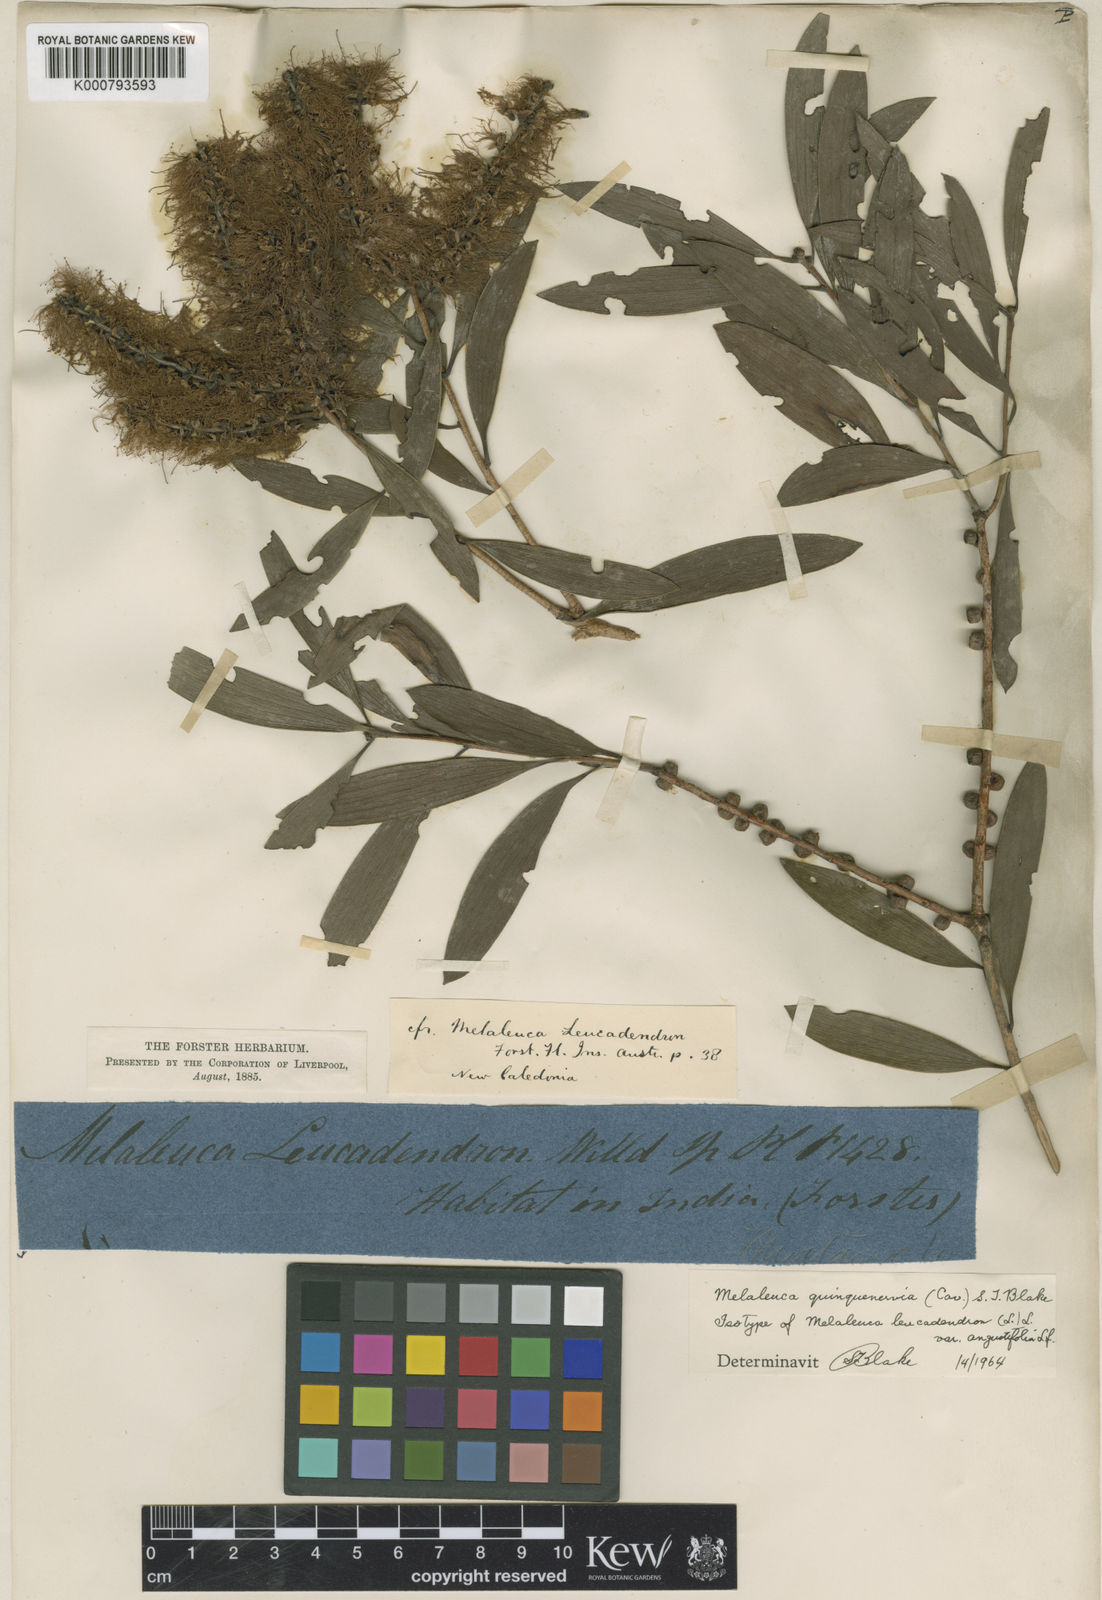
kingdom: Plantae
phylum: Tracheophyta
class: Magnoliopsida
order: Myrtales
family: Myrtaceae
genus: Melaleuca
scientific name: Melaleuca quinquenervia
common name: Punktree
